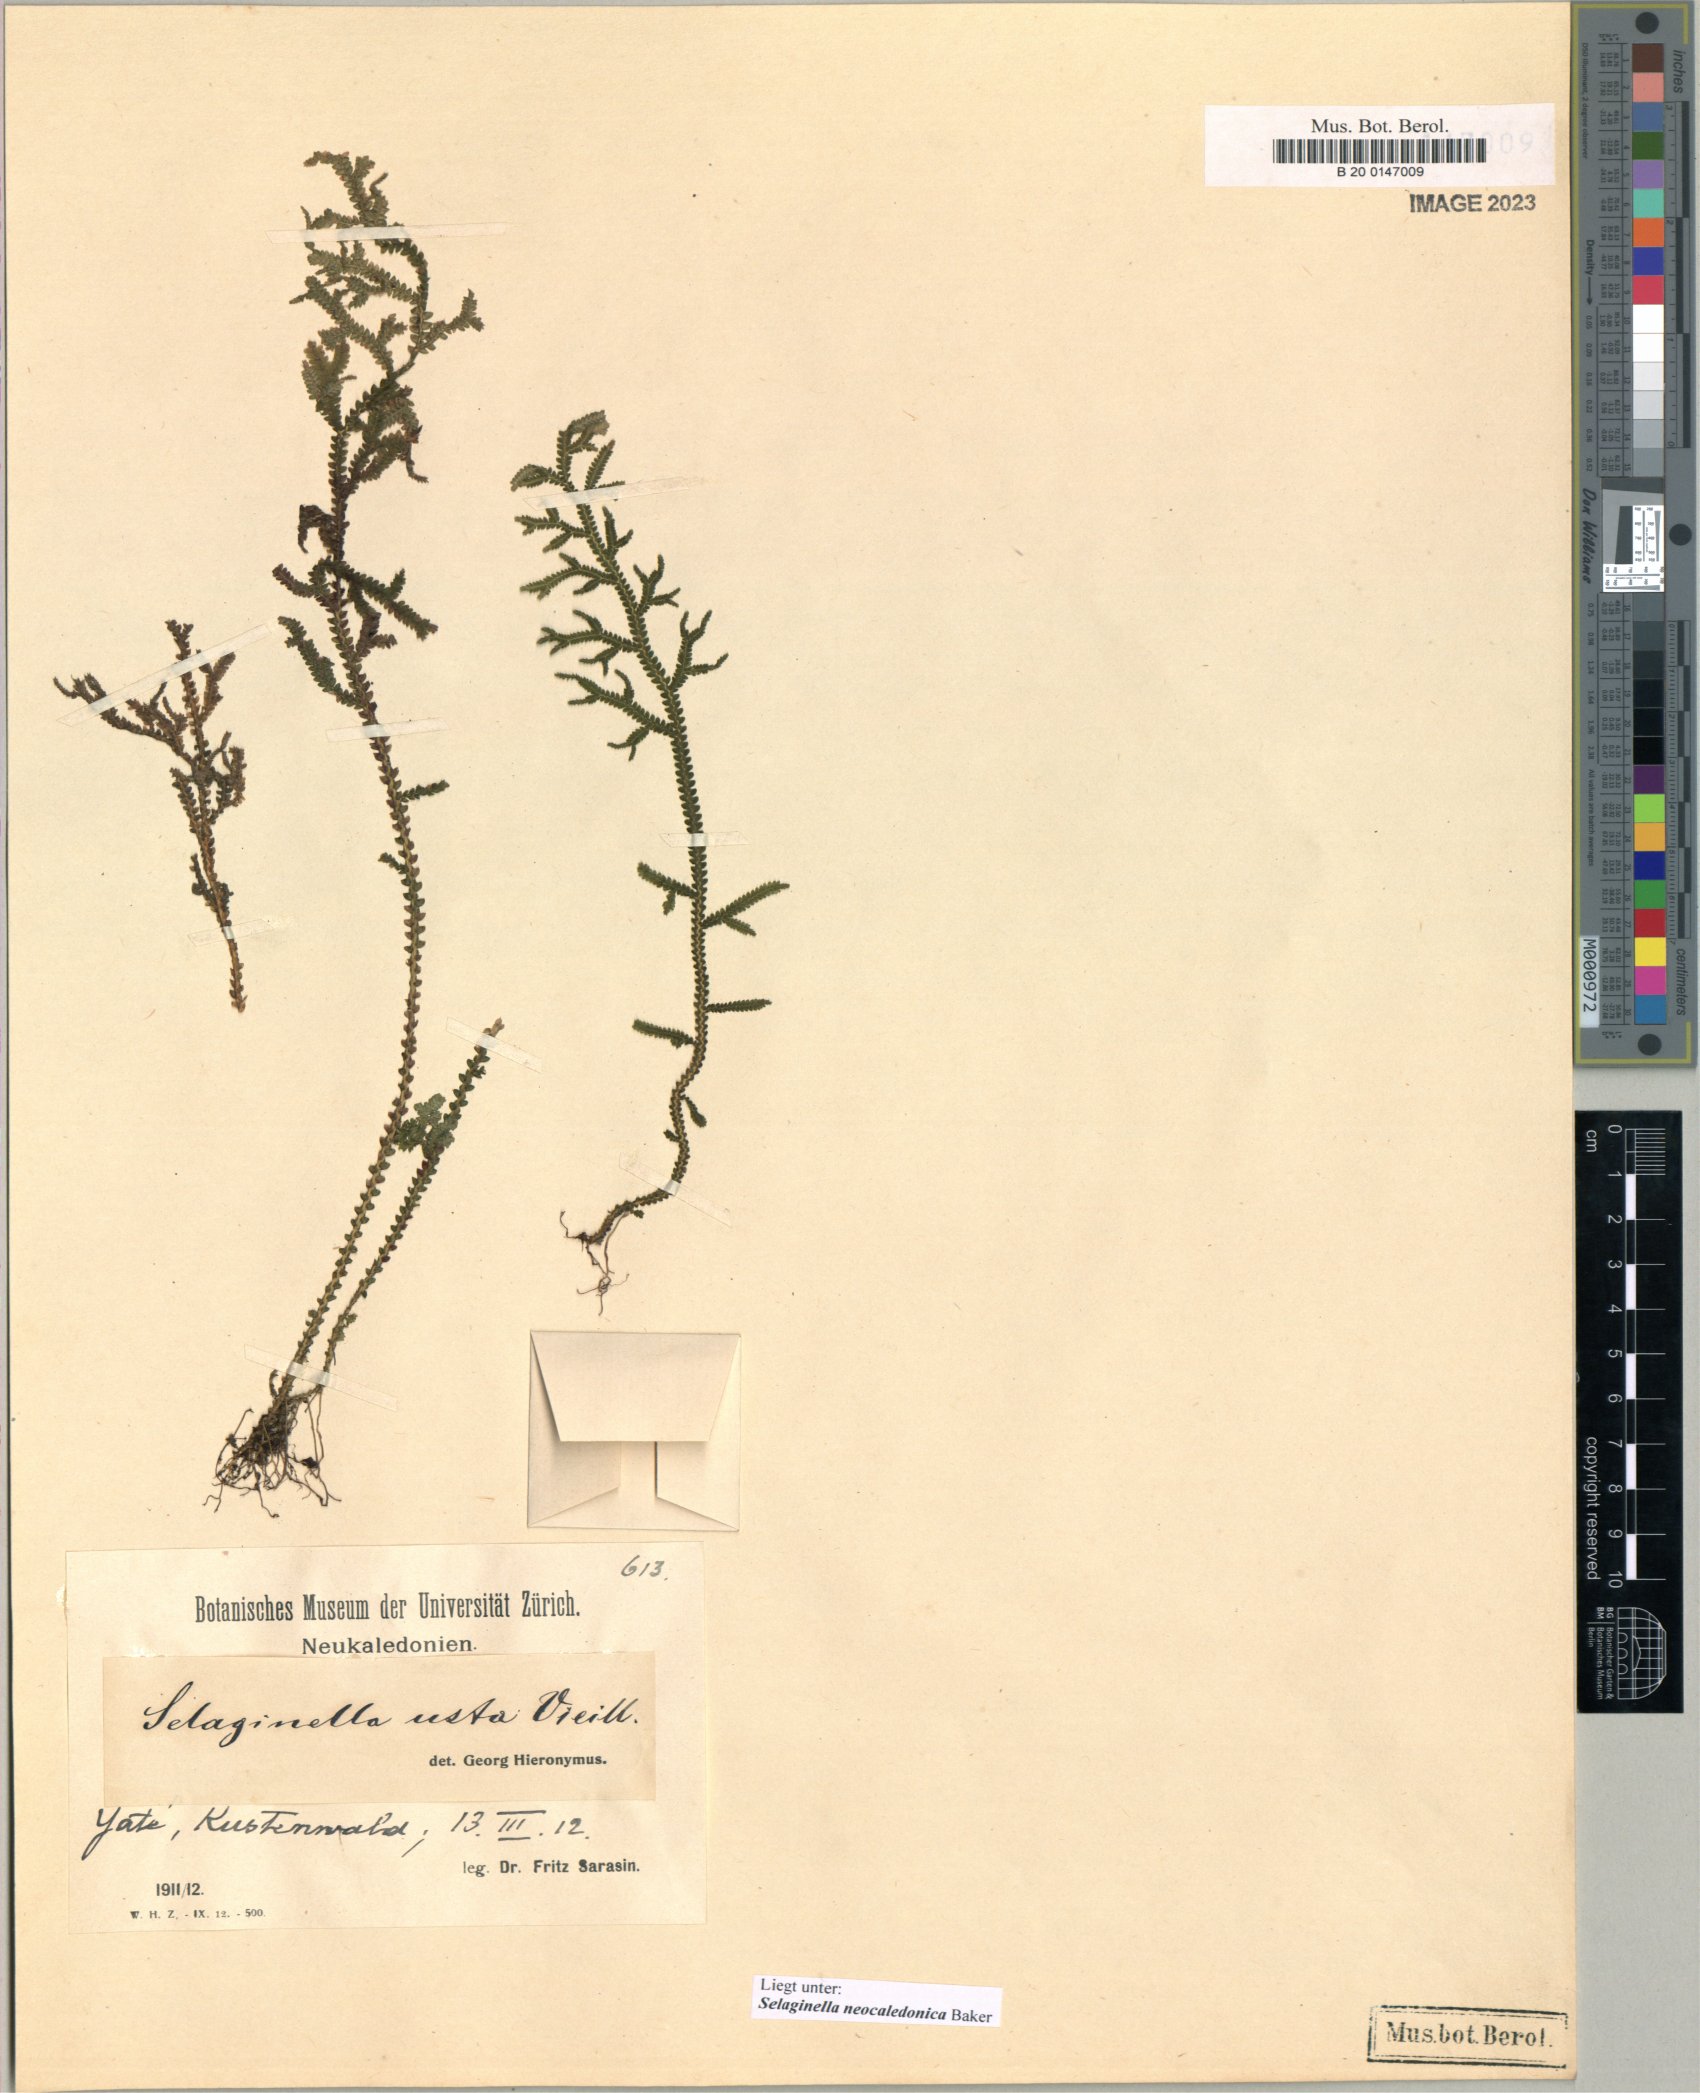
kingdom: Plantae
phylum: Tracheophyta
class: Lycopodiopsida
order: Selaginellales
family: Selaginellaceae
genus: Selaginella
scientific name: Selaginella neocaledonica
